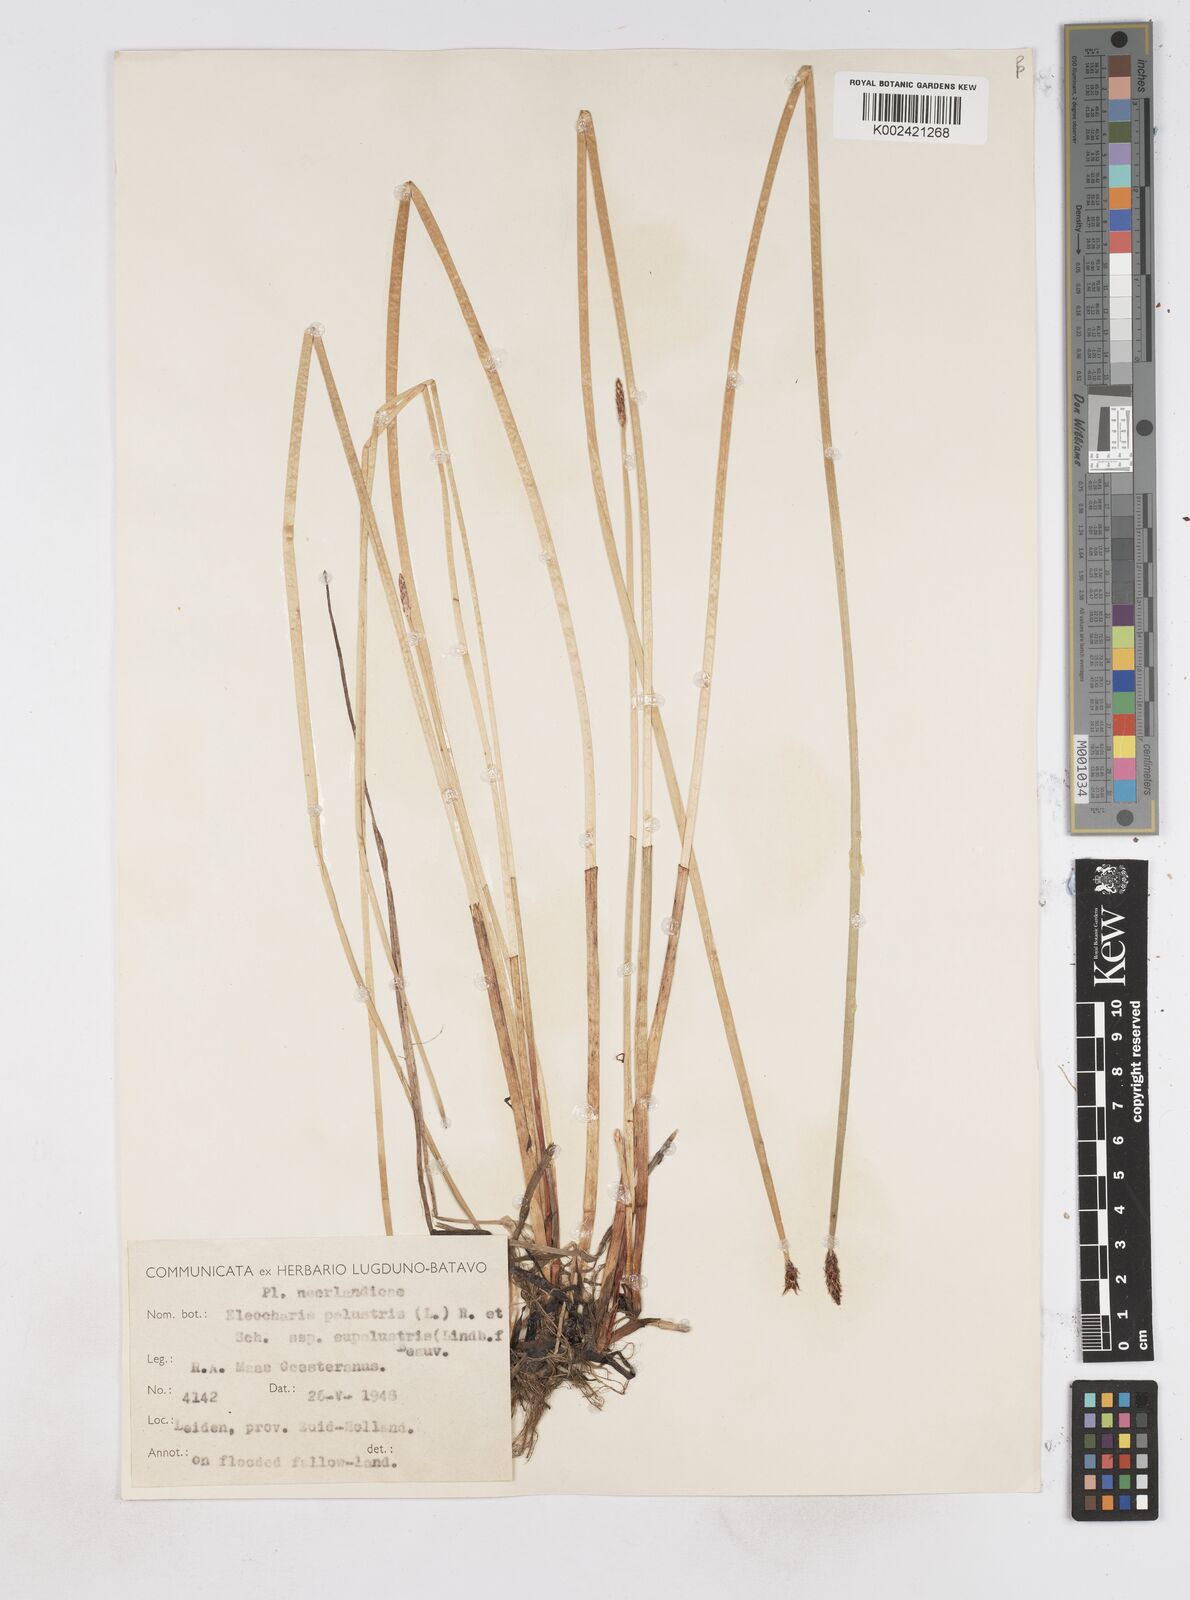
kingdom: Plantae
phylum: Tracheophyta
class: Liliopsida
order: Poales
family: Cyperaceae
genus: Eleocharis
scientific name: Eleocharis palustris
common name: Common spike-rush
